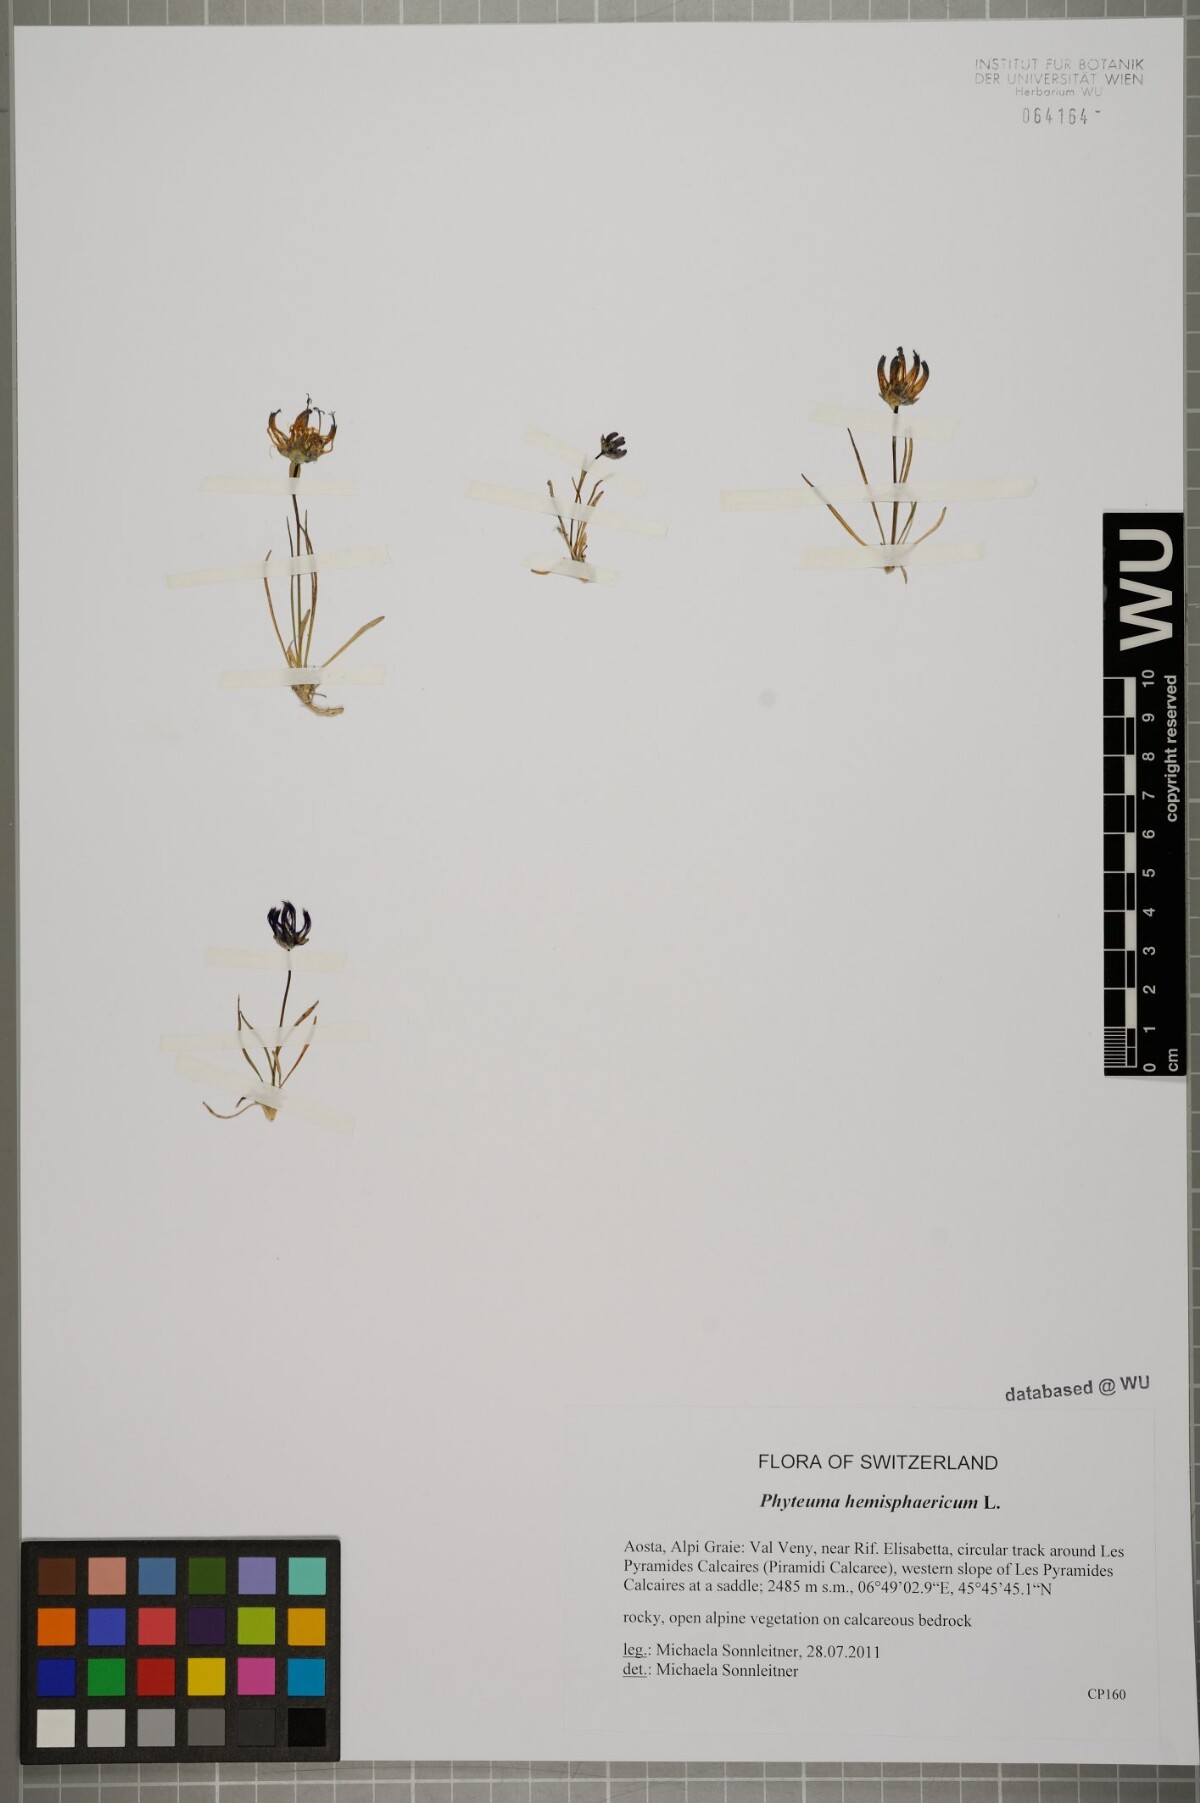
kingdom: Plantae
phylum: Tracheophyta
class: Magnoliopsida
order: Asterales
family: Campanulaceae
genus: Phyteuma
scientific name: Phyteuma hemisphaericum
